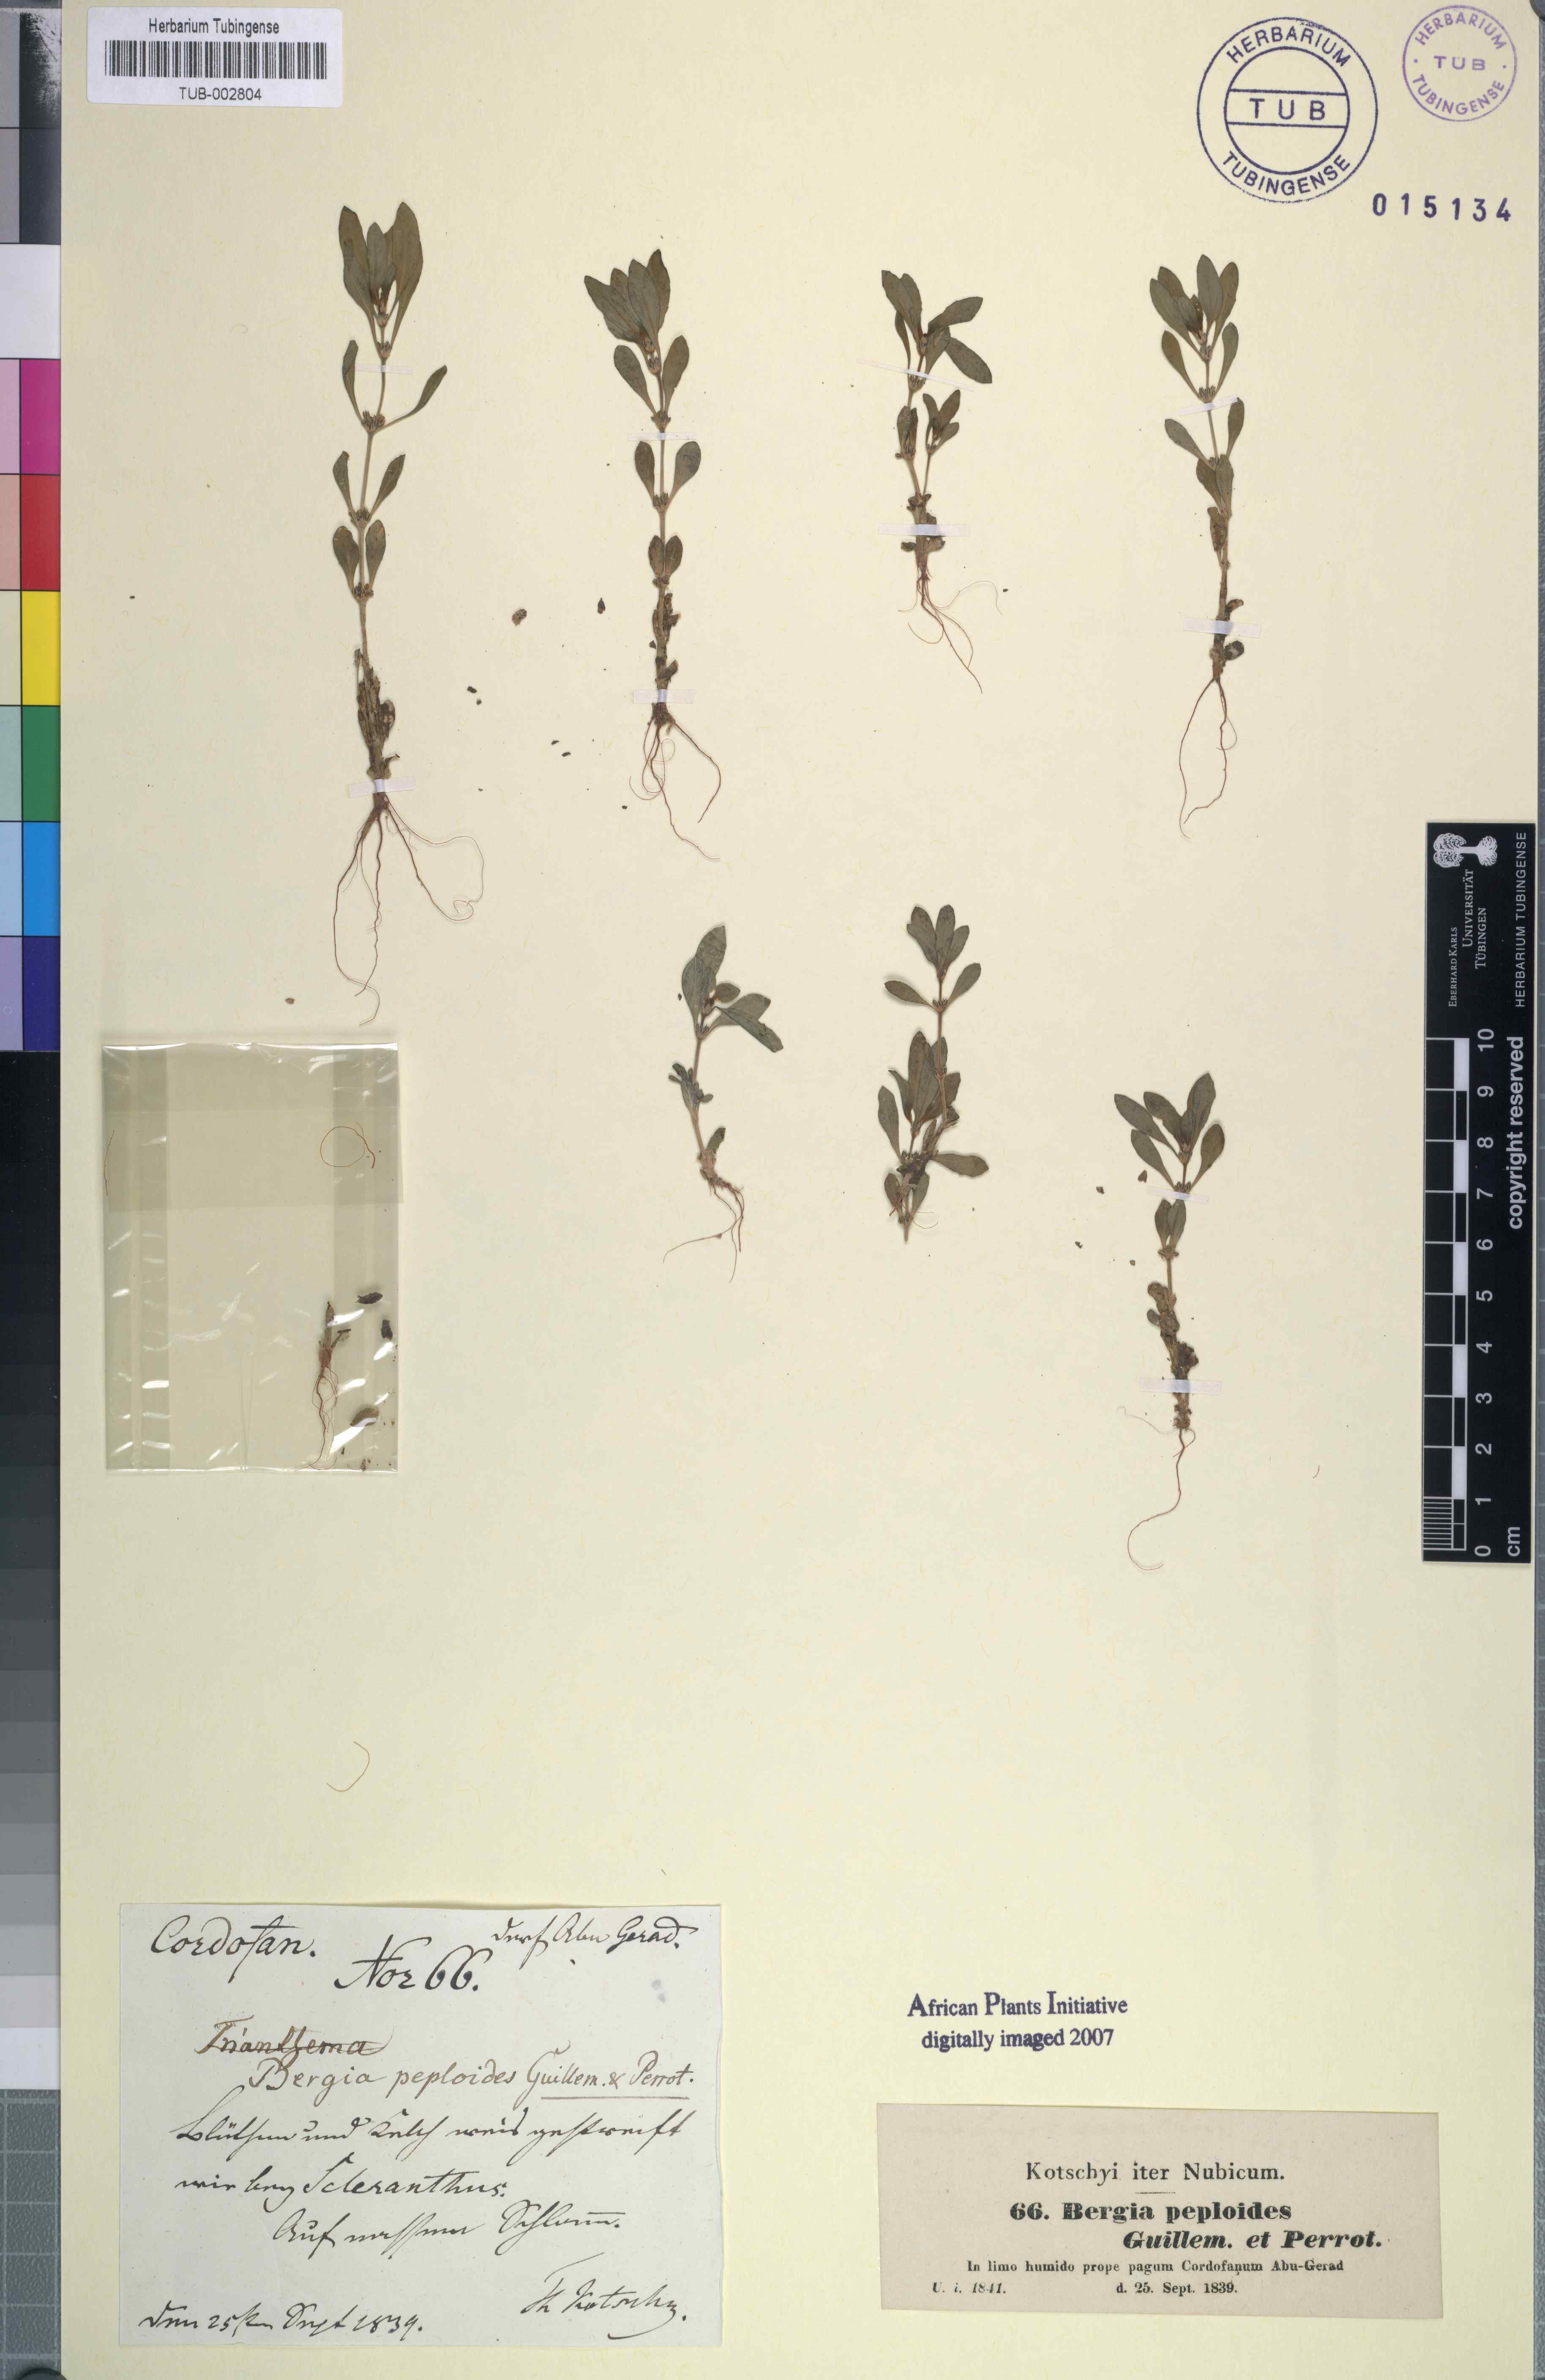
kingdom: Plantae
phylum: Tracheophyta
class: Magnoliopsida
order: Malpighiales
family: Elatinaceae
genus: Bergia
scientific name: Bergia ammannioides
